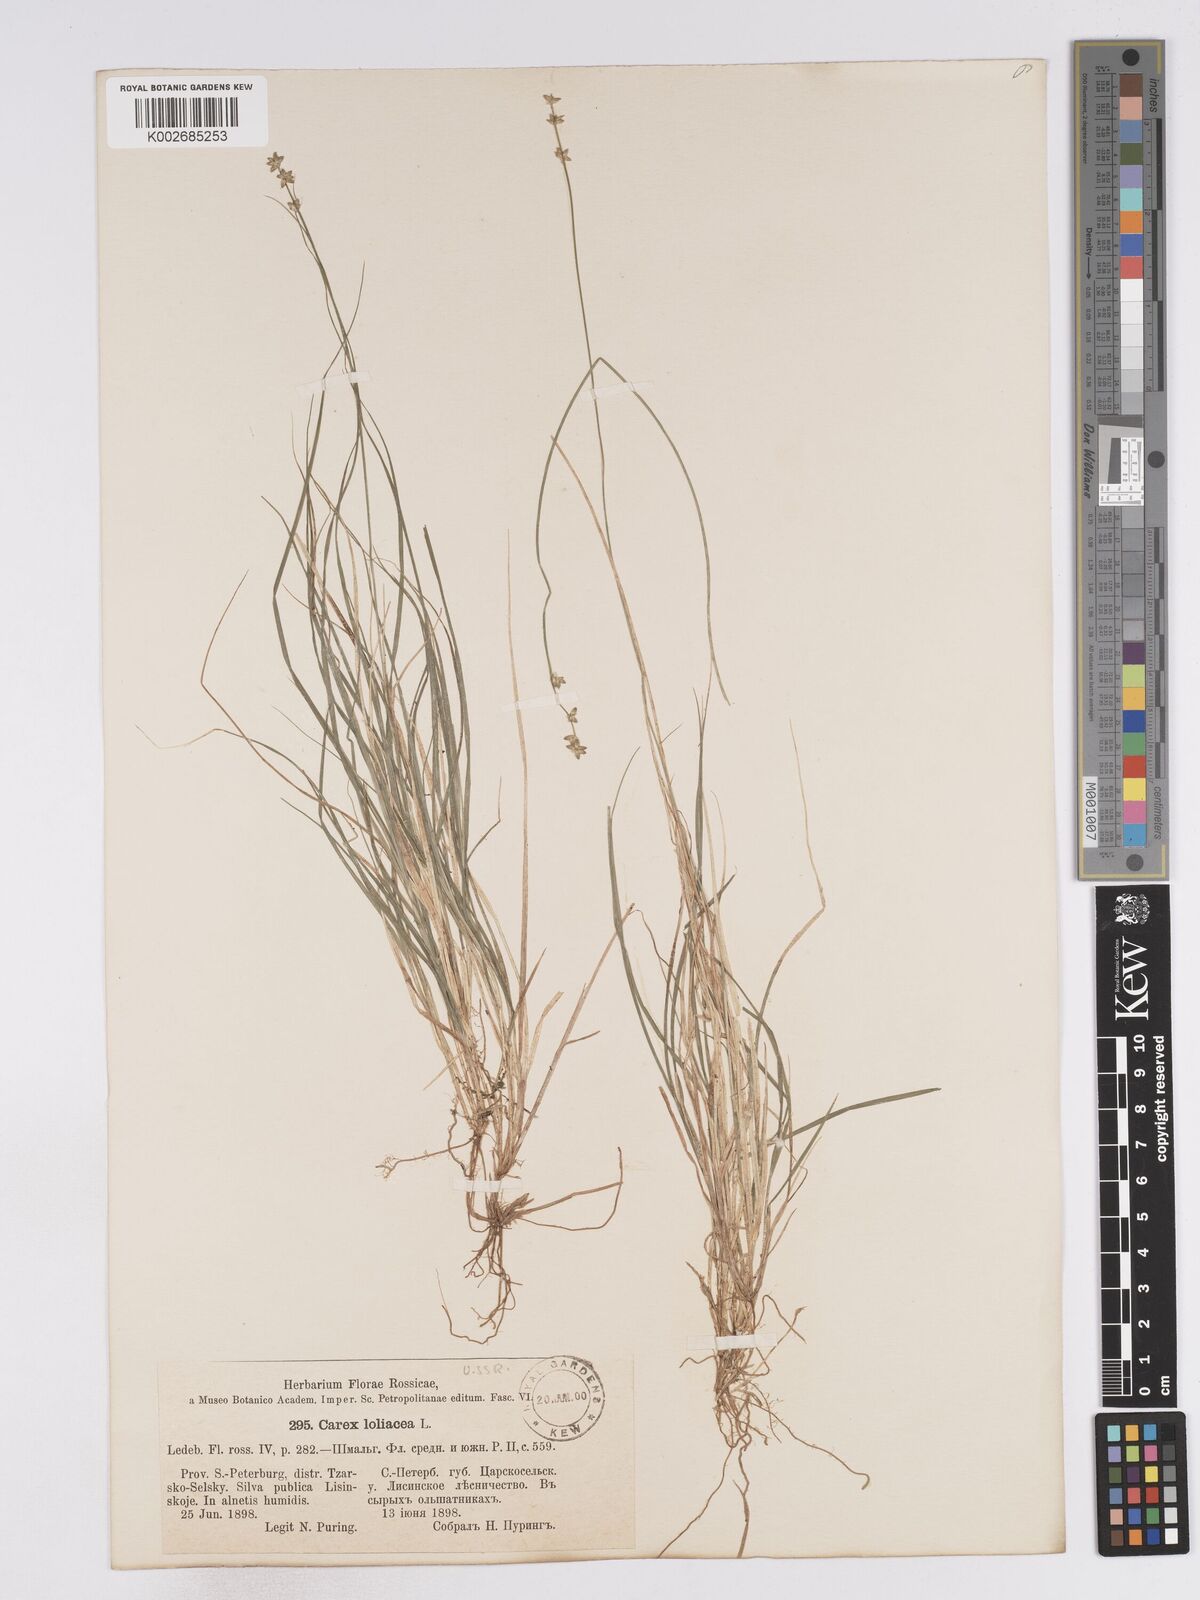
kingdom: Plantae
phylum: Tracheophyta
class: Liliopsida
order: Poales
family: Cyperaceae
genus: Carex
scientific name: Carex loliacea
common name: Ryegrass sedge
